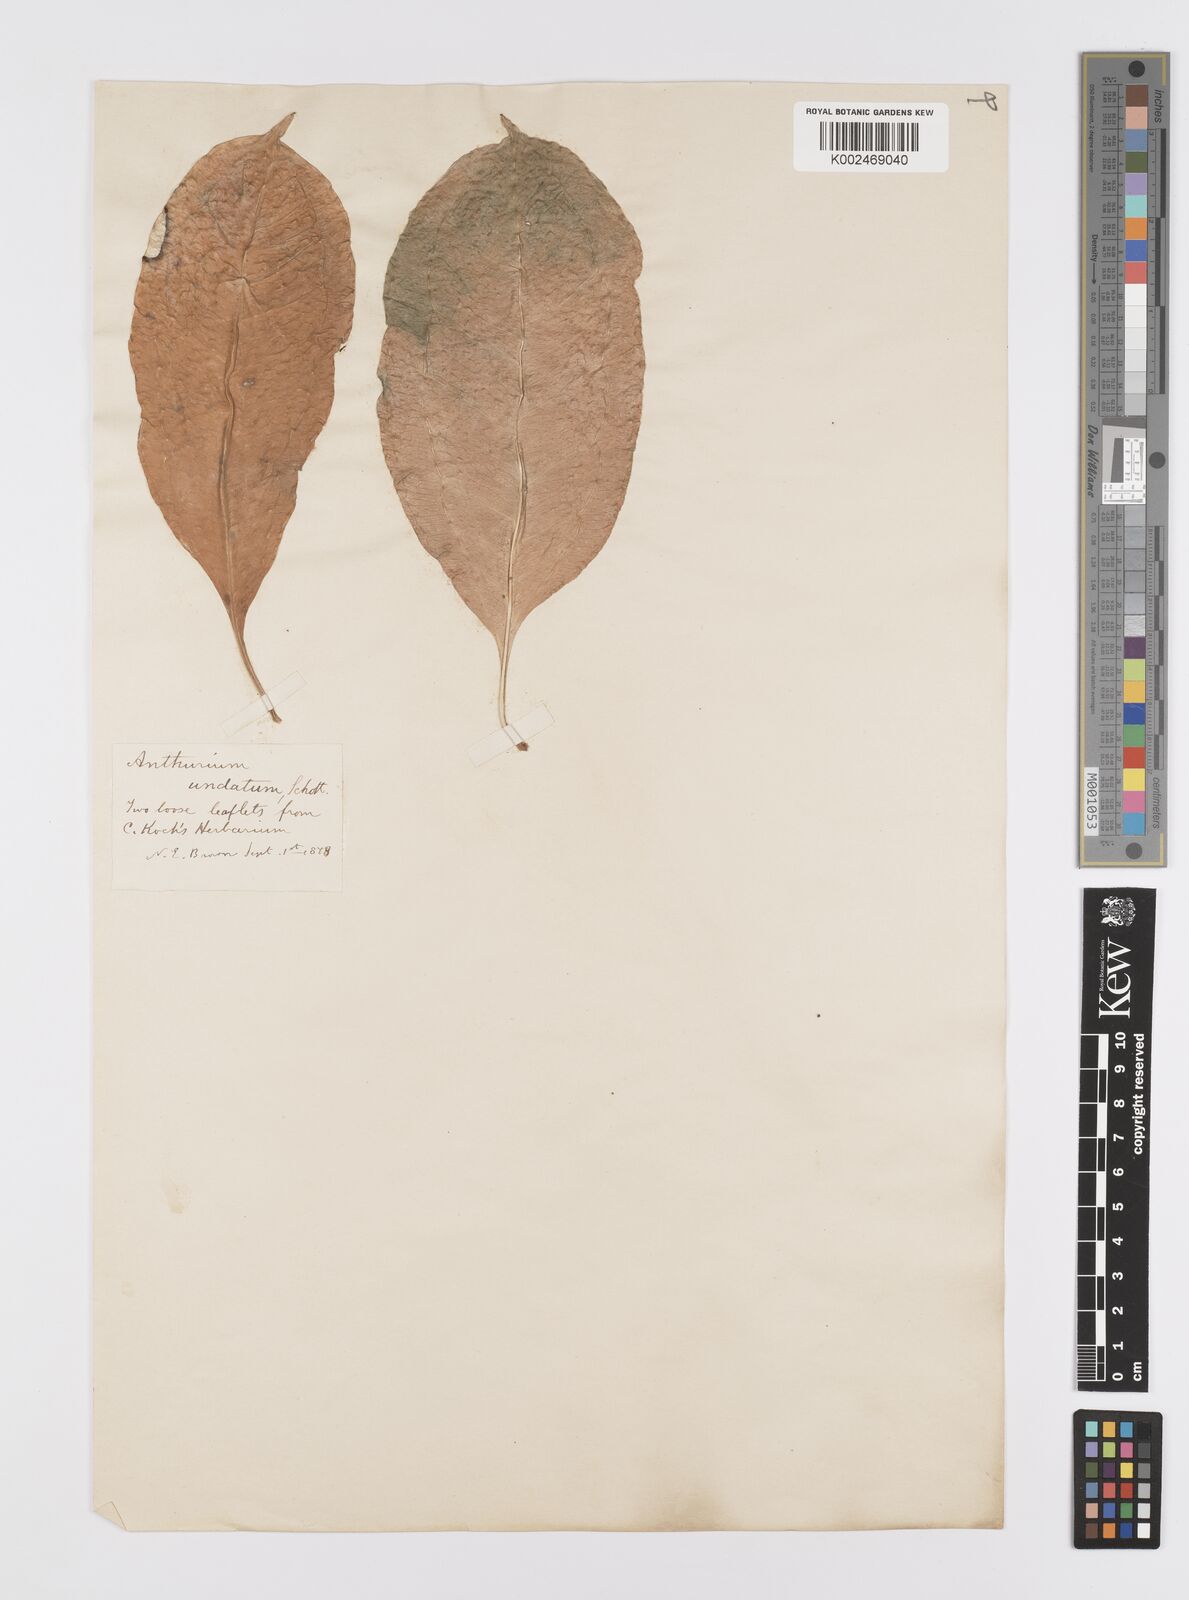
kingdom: Plantae
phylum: Tracheophyta
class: Liliopsida
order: Alismatales
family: Araceae
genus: Anthurium
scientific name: Anthurium pentaphyllum
